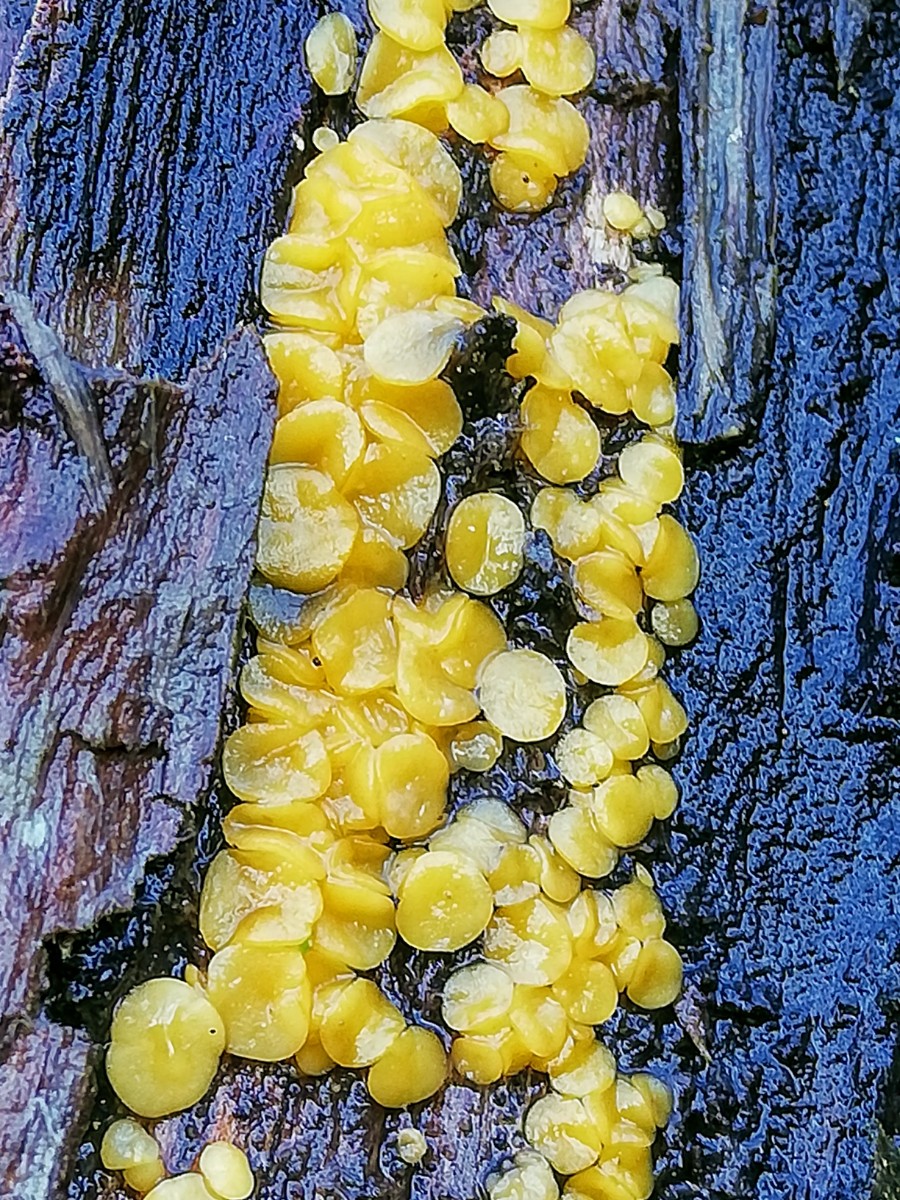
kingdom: Fungi
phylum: Ascomycota
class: Leotiomycetes
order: Helotiales
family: Pezizellaceae
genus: Calycina
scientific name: Calycina citrina
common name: almindelig gulskive
